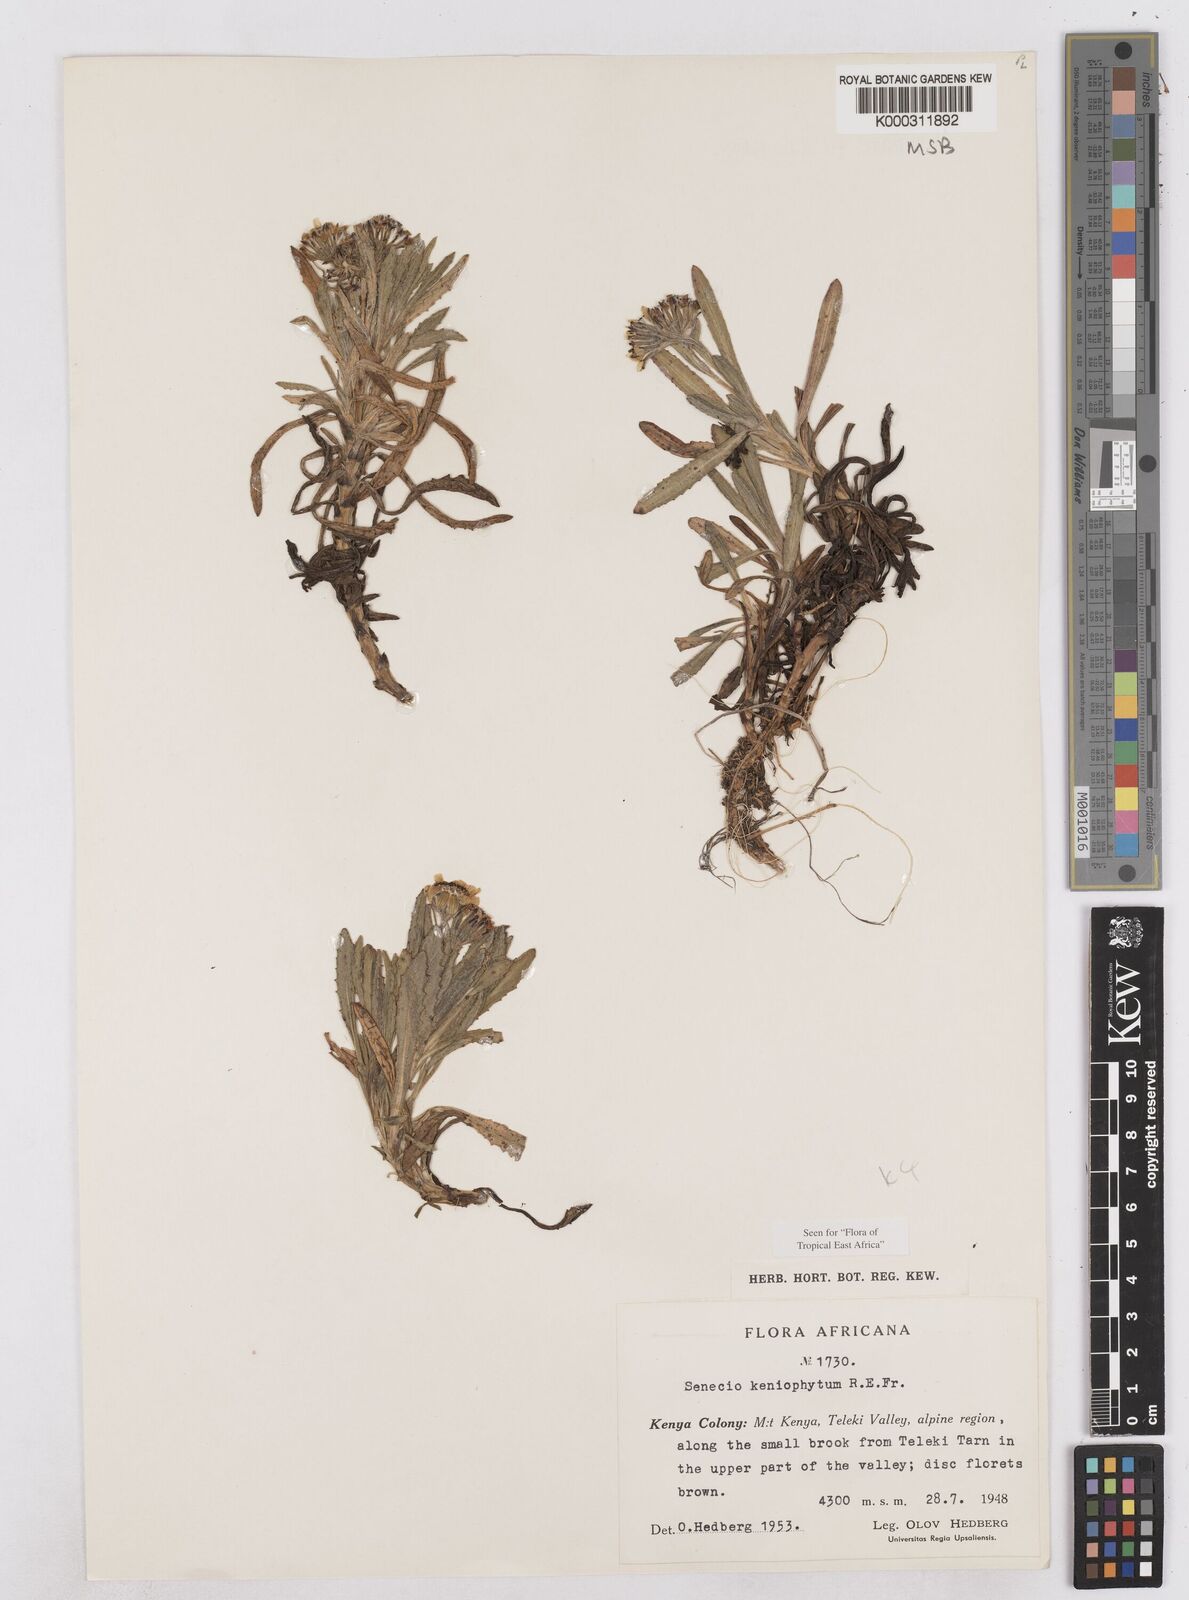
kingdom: Plantae
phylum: Tracheophyta
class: Magnoliopsida
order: Asterales
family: Asteraceae
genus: Senecio
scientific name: Senecio keniophytum
